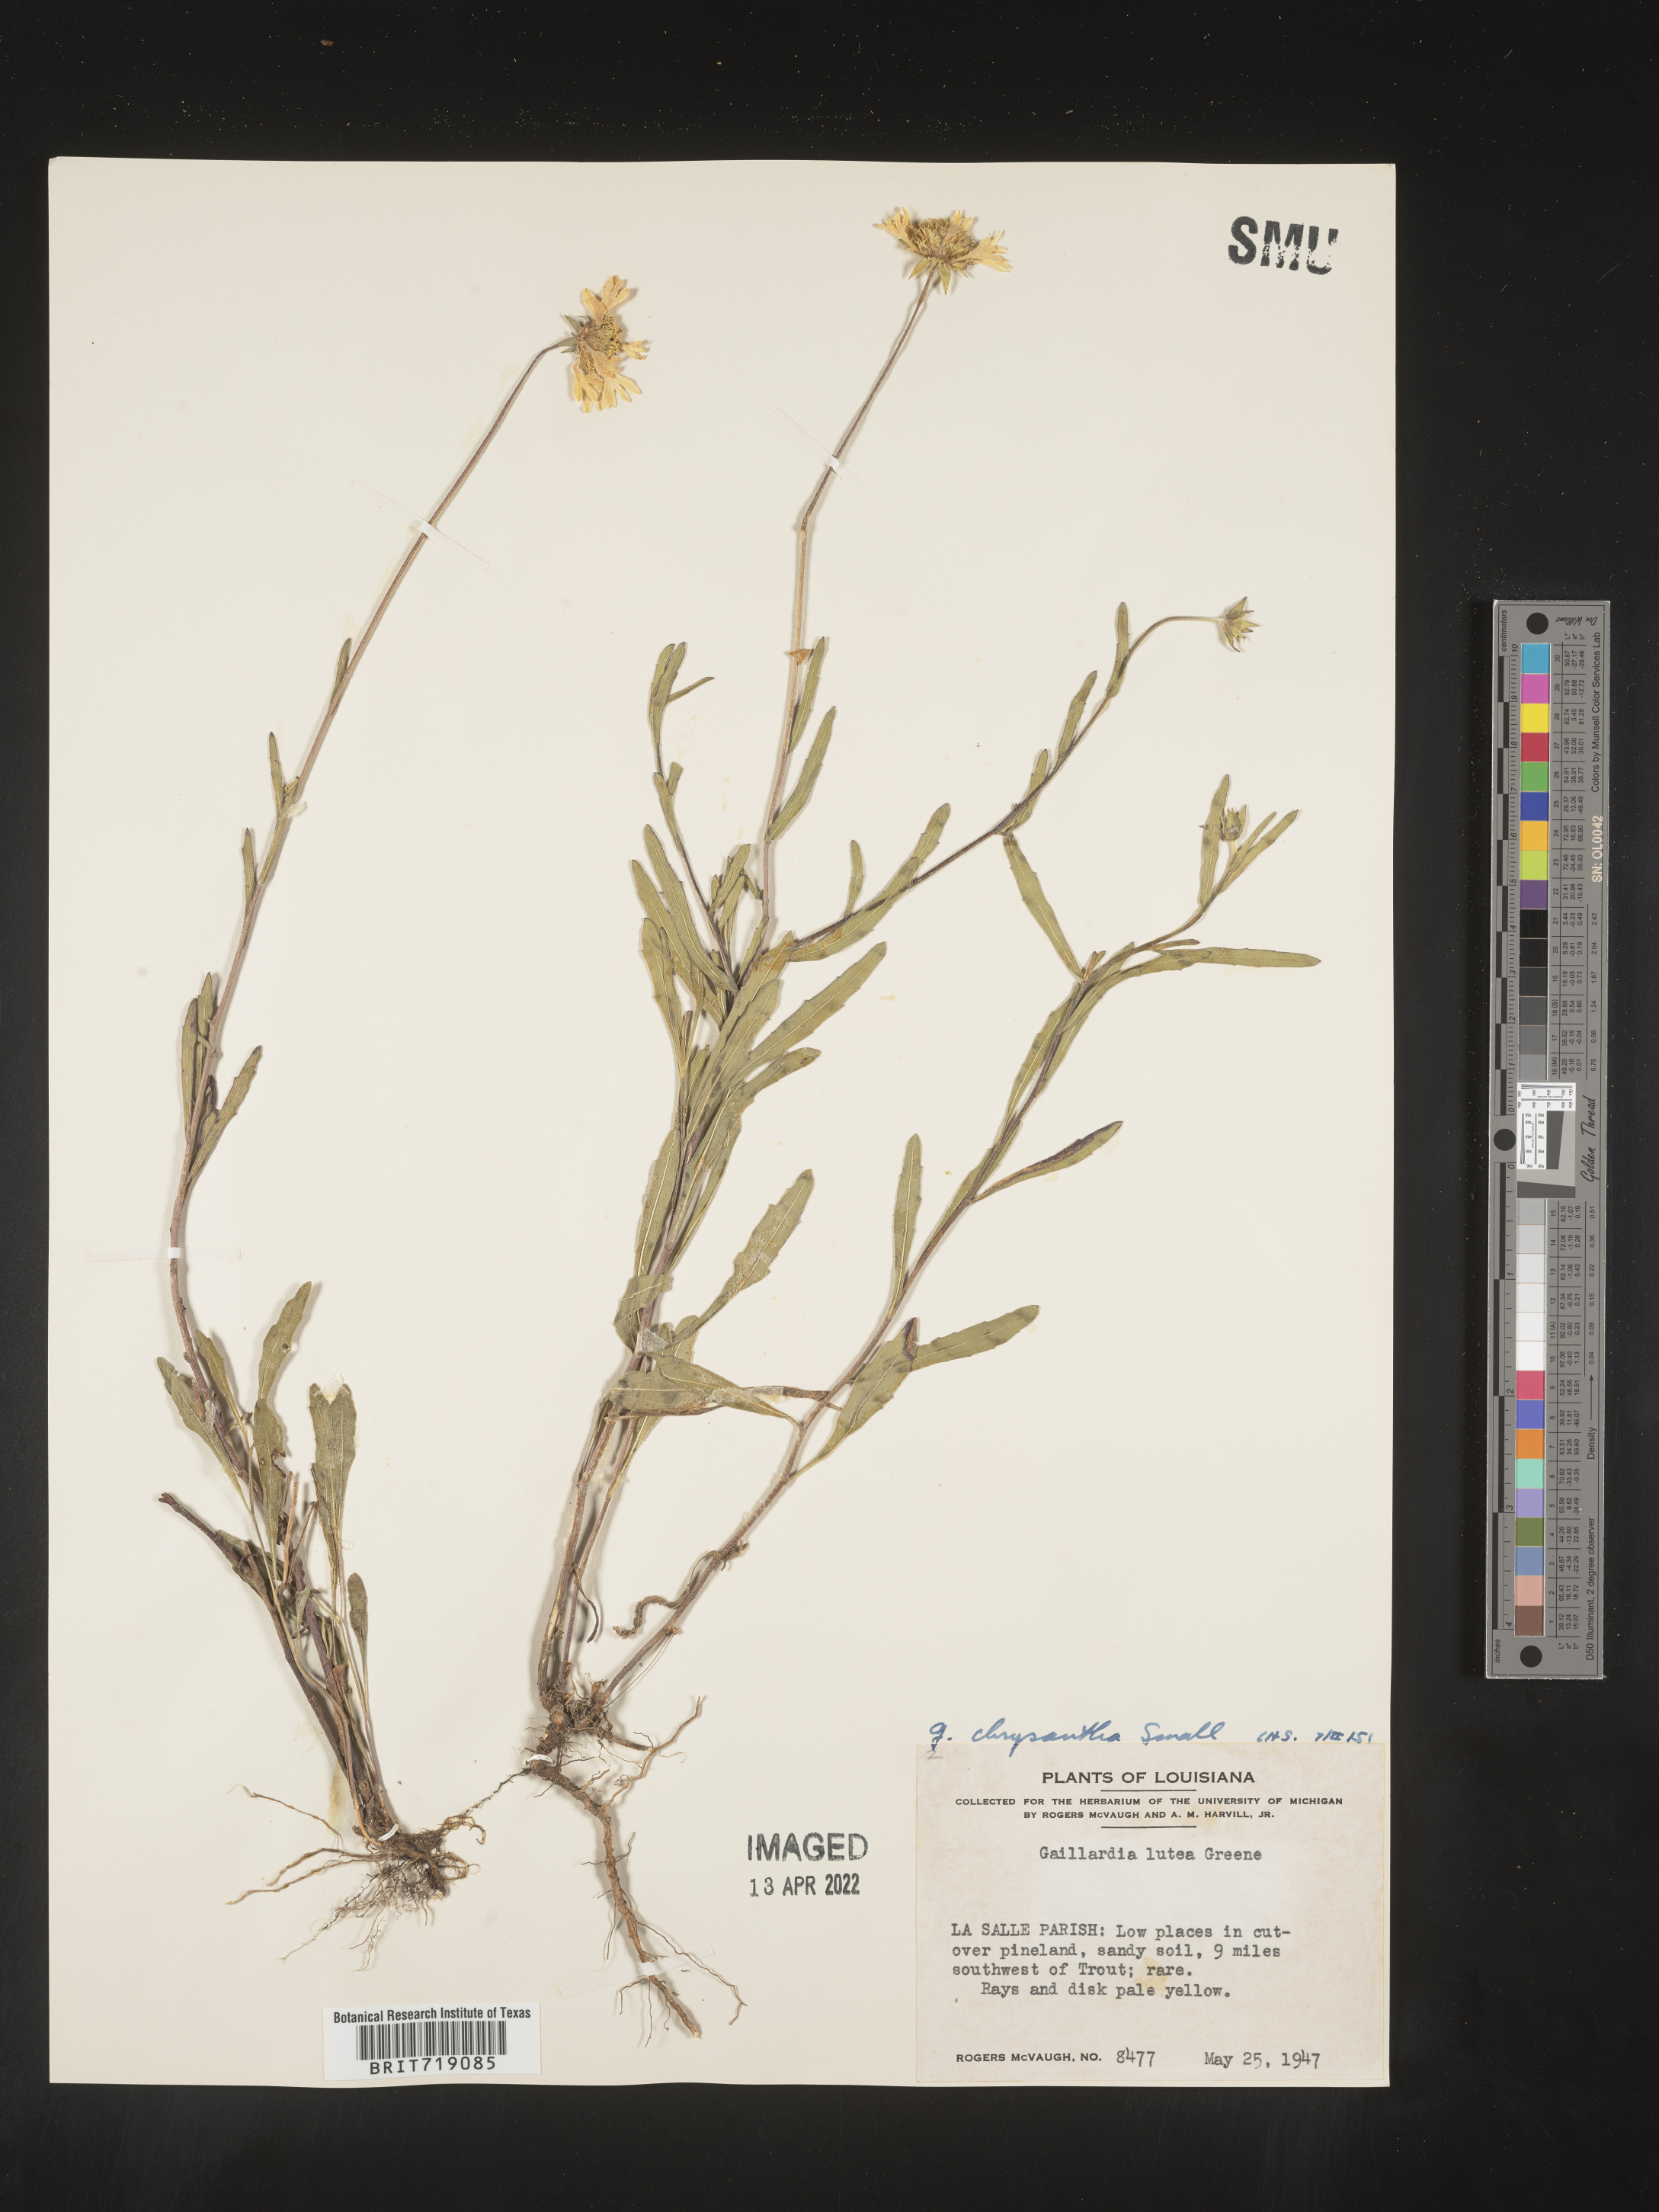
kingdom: Plantae
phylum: Tracheophyta
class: Magnoliopsida
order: Asterales
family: Asteraceae
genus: Gaillardia
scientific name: Gaillardia aestivalis
